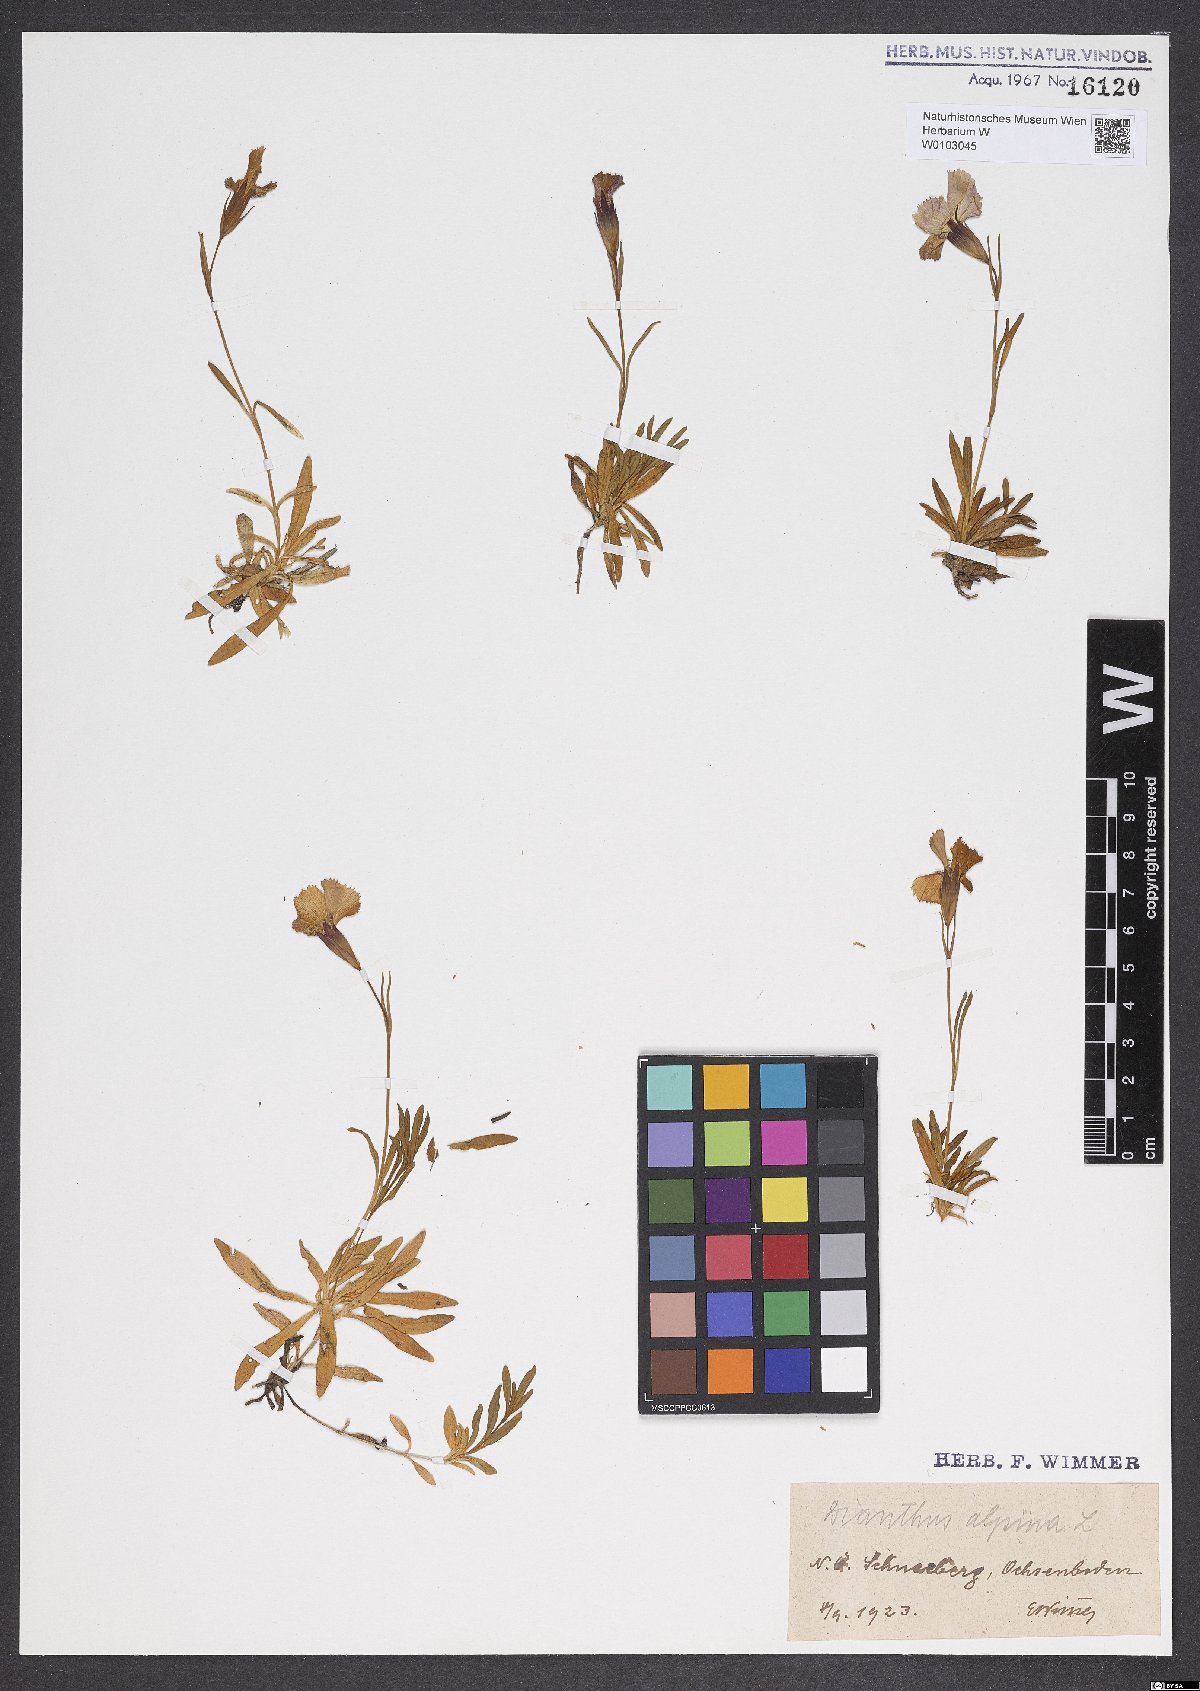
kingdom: Plantae
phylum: Tracheophyta
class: Magnoliopsida
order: Caryophyllales
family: Caryophyllaceae
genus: Dianthus
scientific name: Dianthus alpinus
